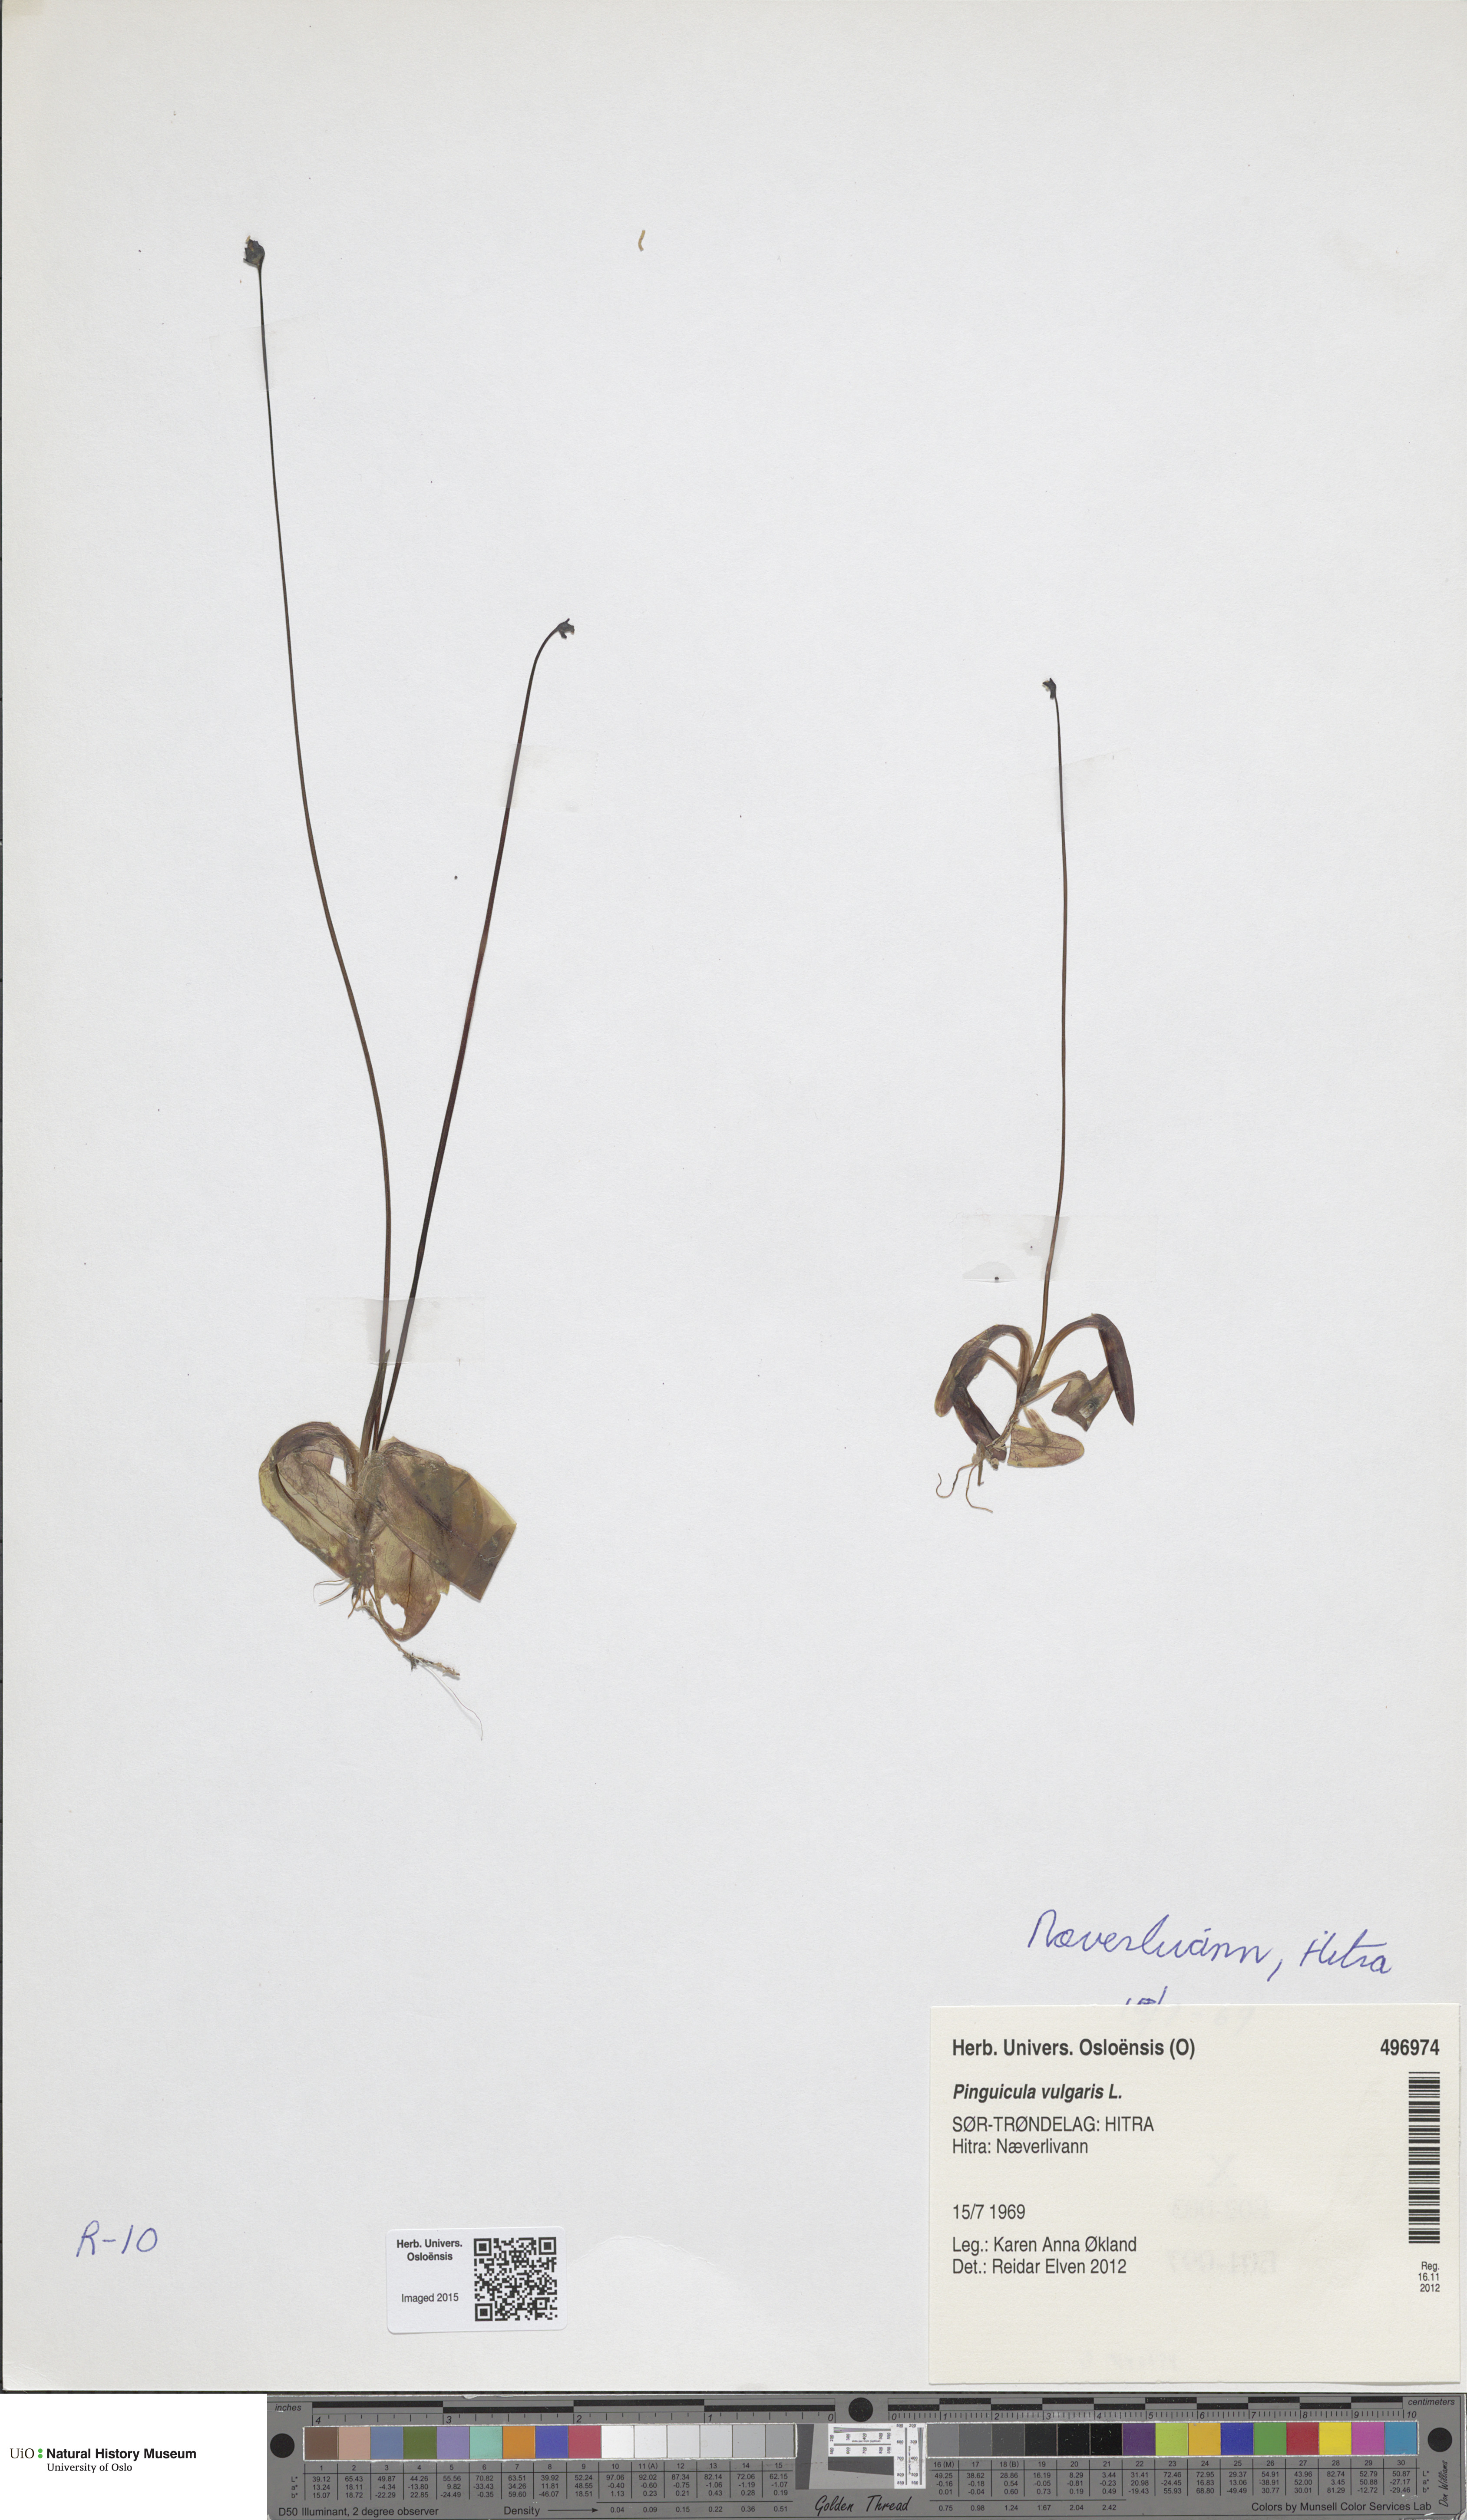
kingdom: Plantae
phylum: Tracheophyta
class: Magnoliopsida
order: Lamiales
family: Lentibulariaceae
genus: Pinguicula
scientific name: Pinguicula vulgaris
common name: Common butterwort
